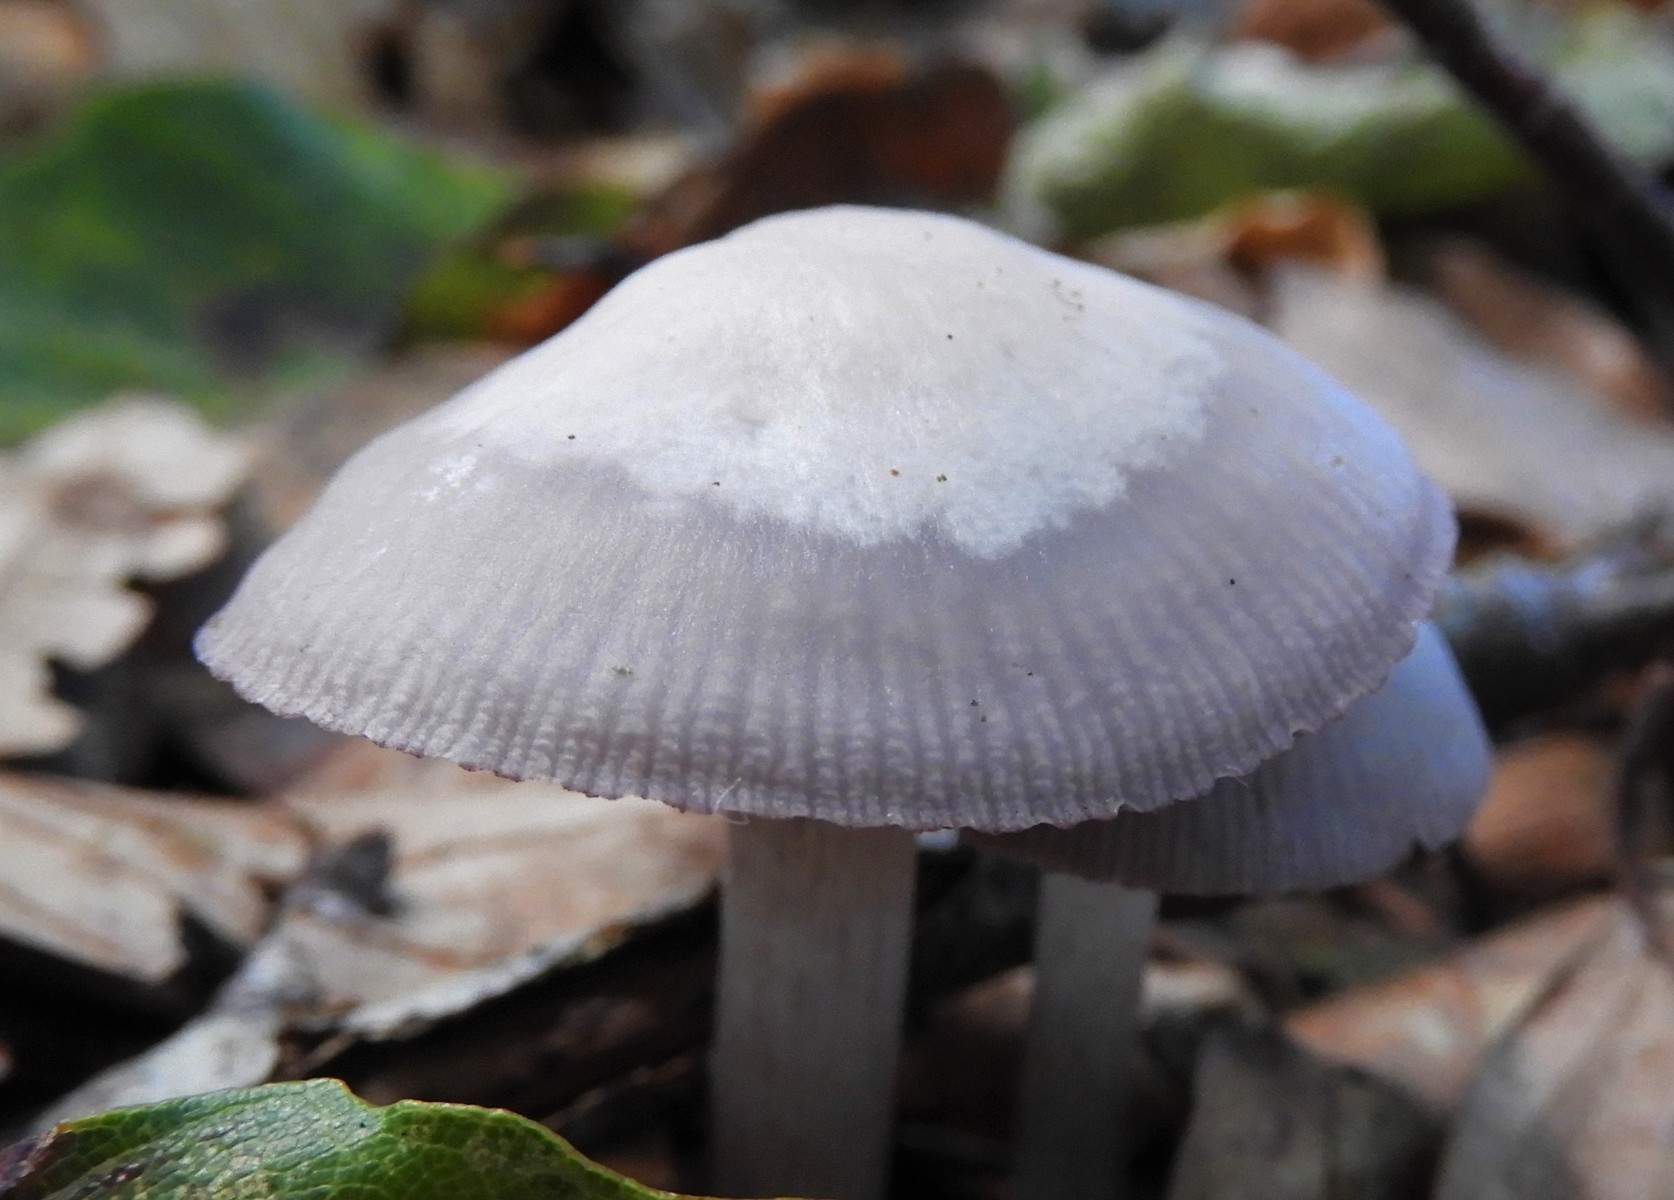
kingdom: Fungi
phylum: Basidiomycota
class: Agaricomycetes
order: Agaricales
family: Mycenaceae
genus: Mycena
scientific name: Mycena pelianthina
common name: mørkbladet huesvamp
